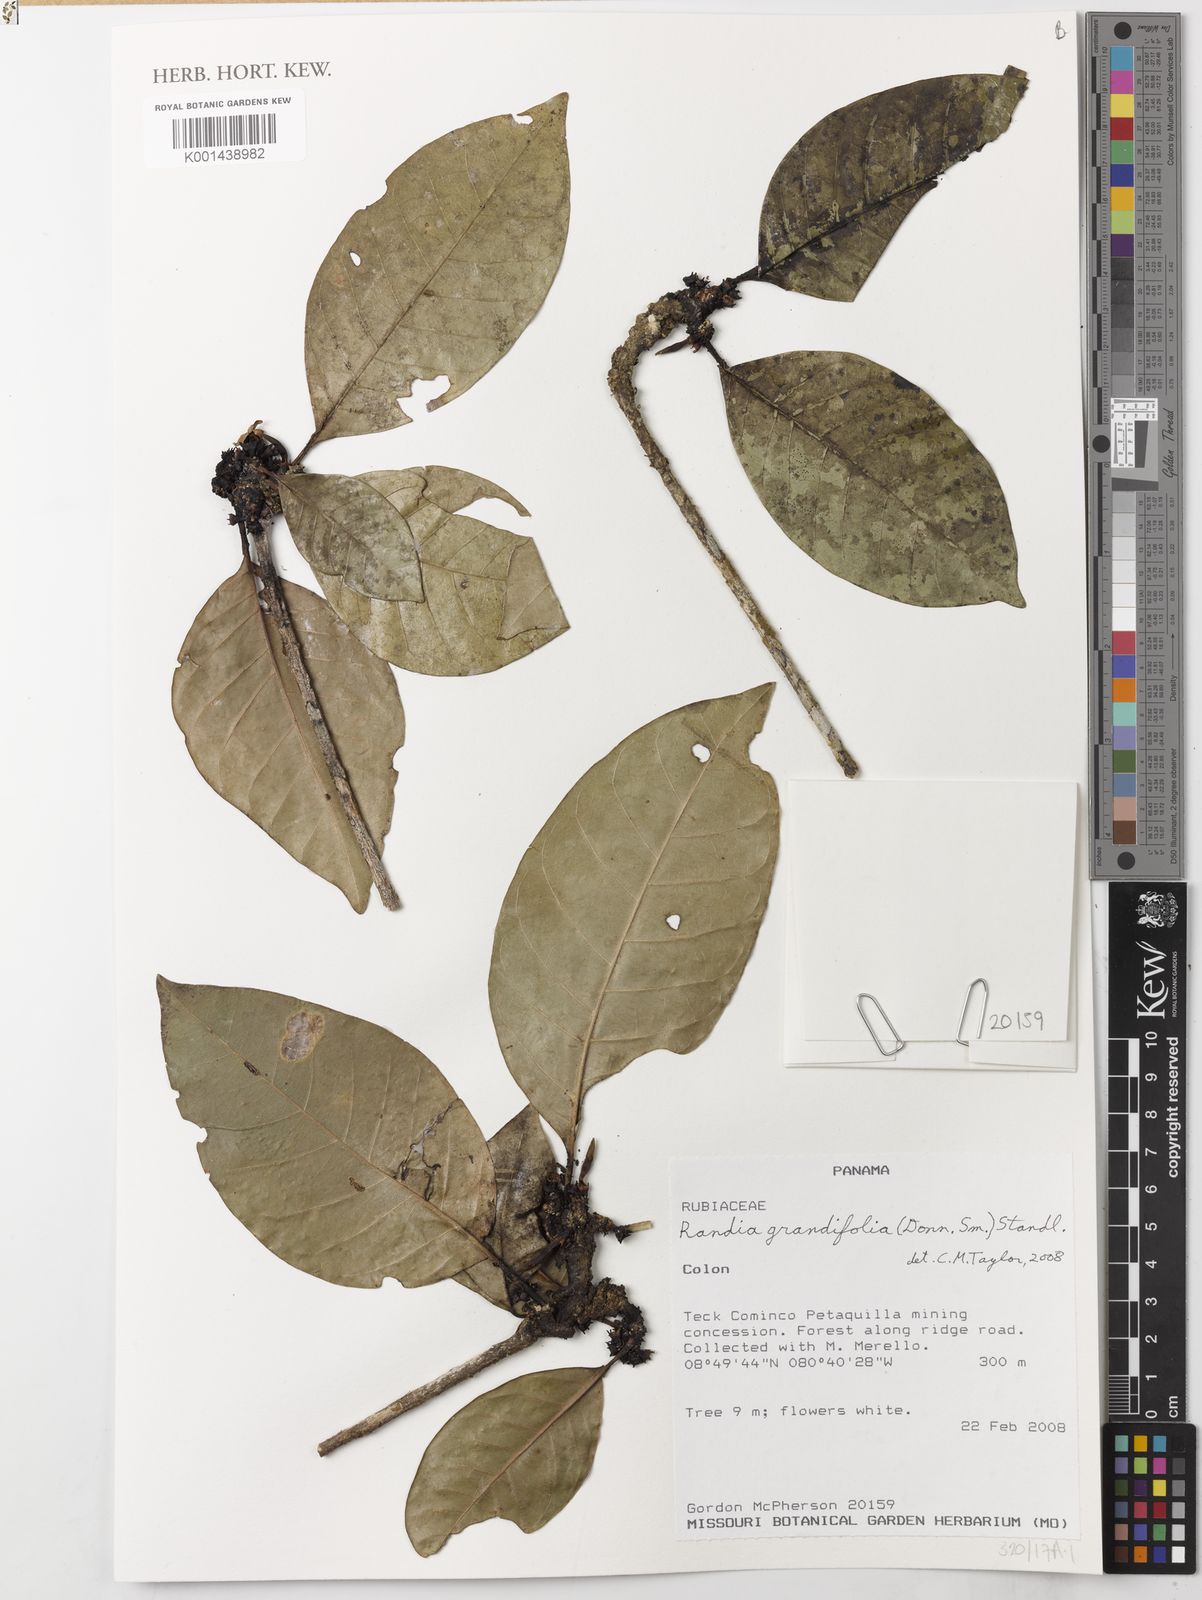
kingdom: Plantae
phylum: Tracheophyta
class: Magnoliopsida
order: Gentianales
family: Rubiaceae
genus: Randia
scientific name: Randia grandifolia
